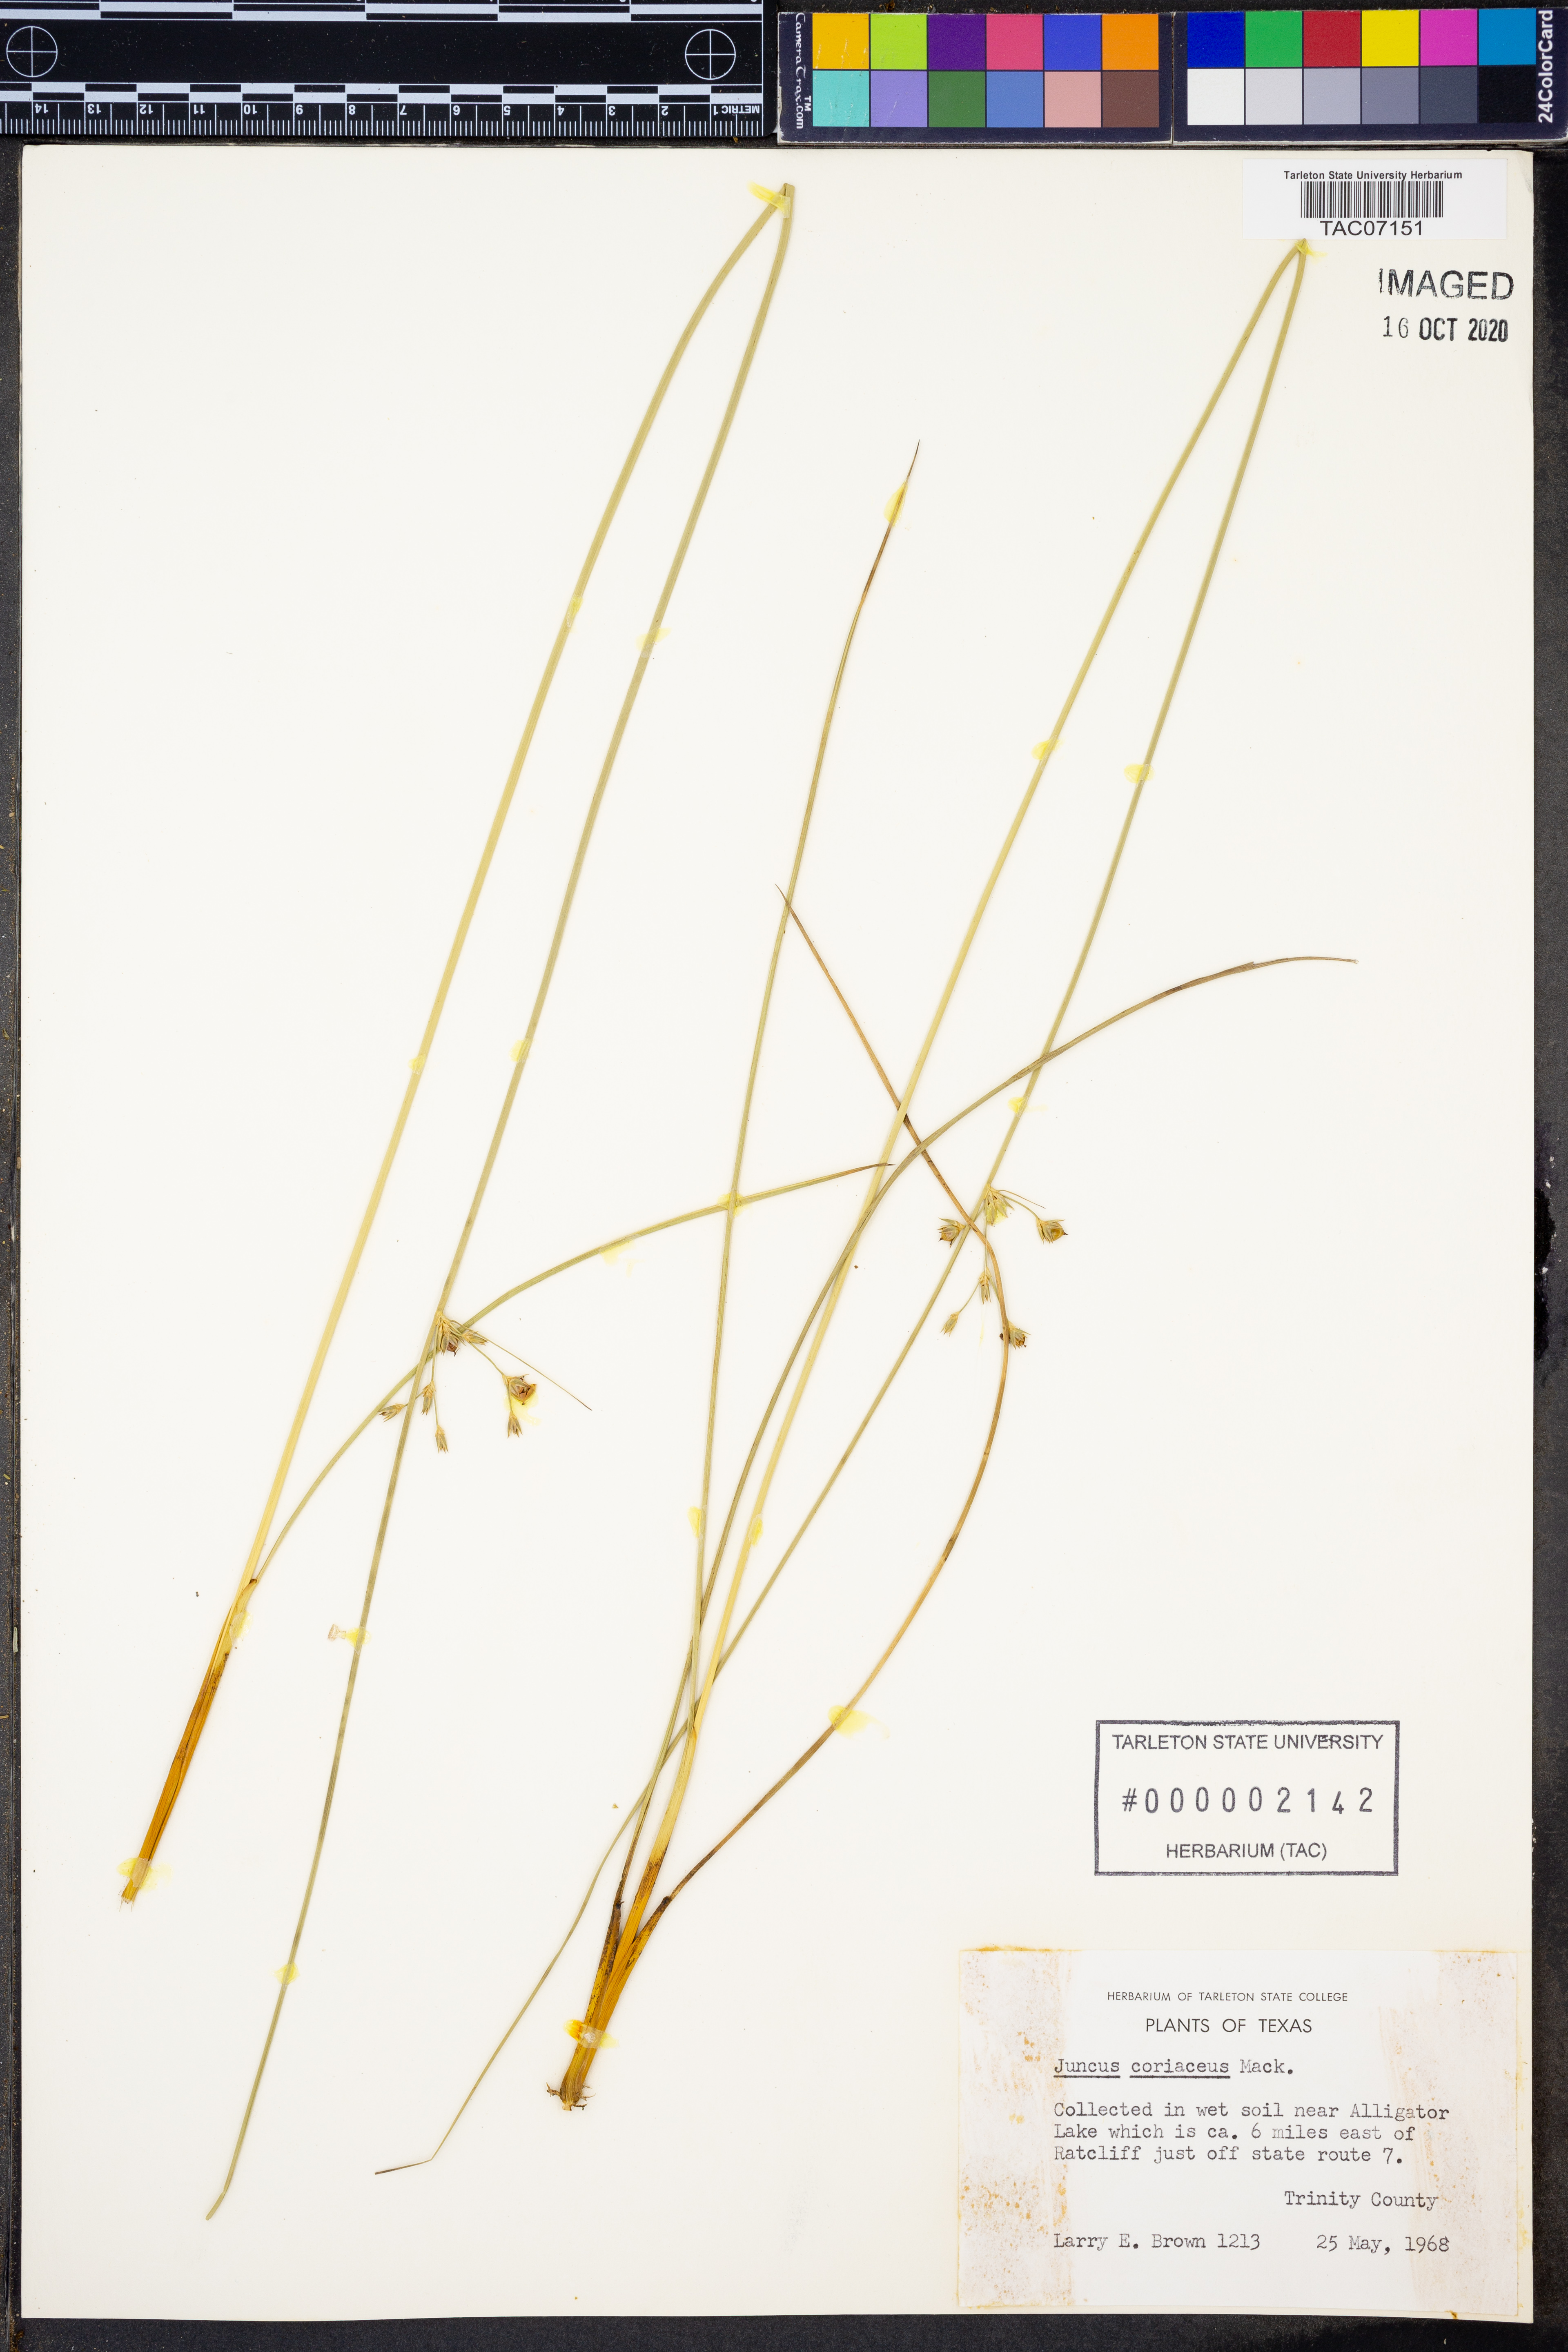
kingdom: Plantae
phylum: Tracheophyta
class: Liliopsida
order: Poales
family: Juncaceae
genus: Juncus
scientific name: Juncus coriaceus
